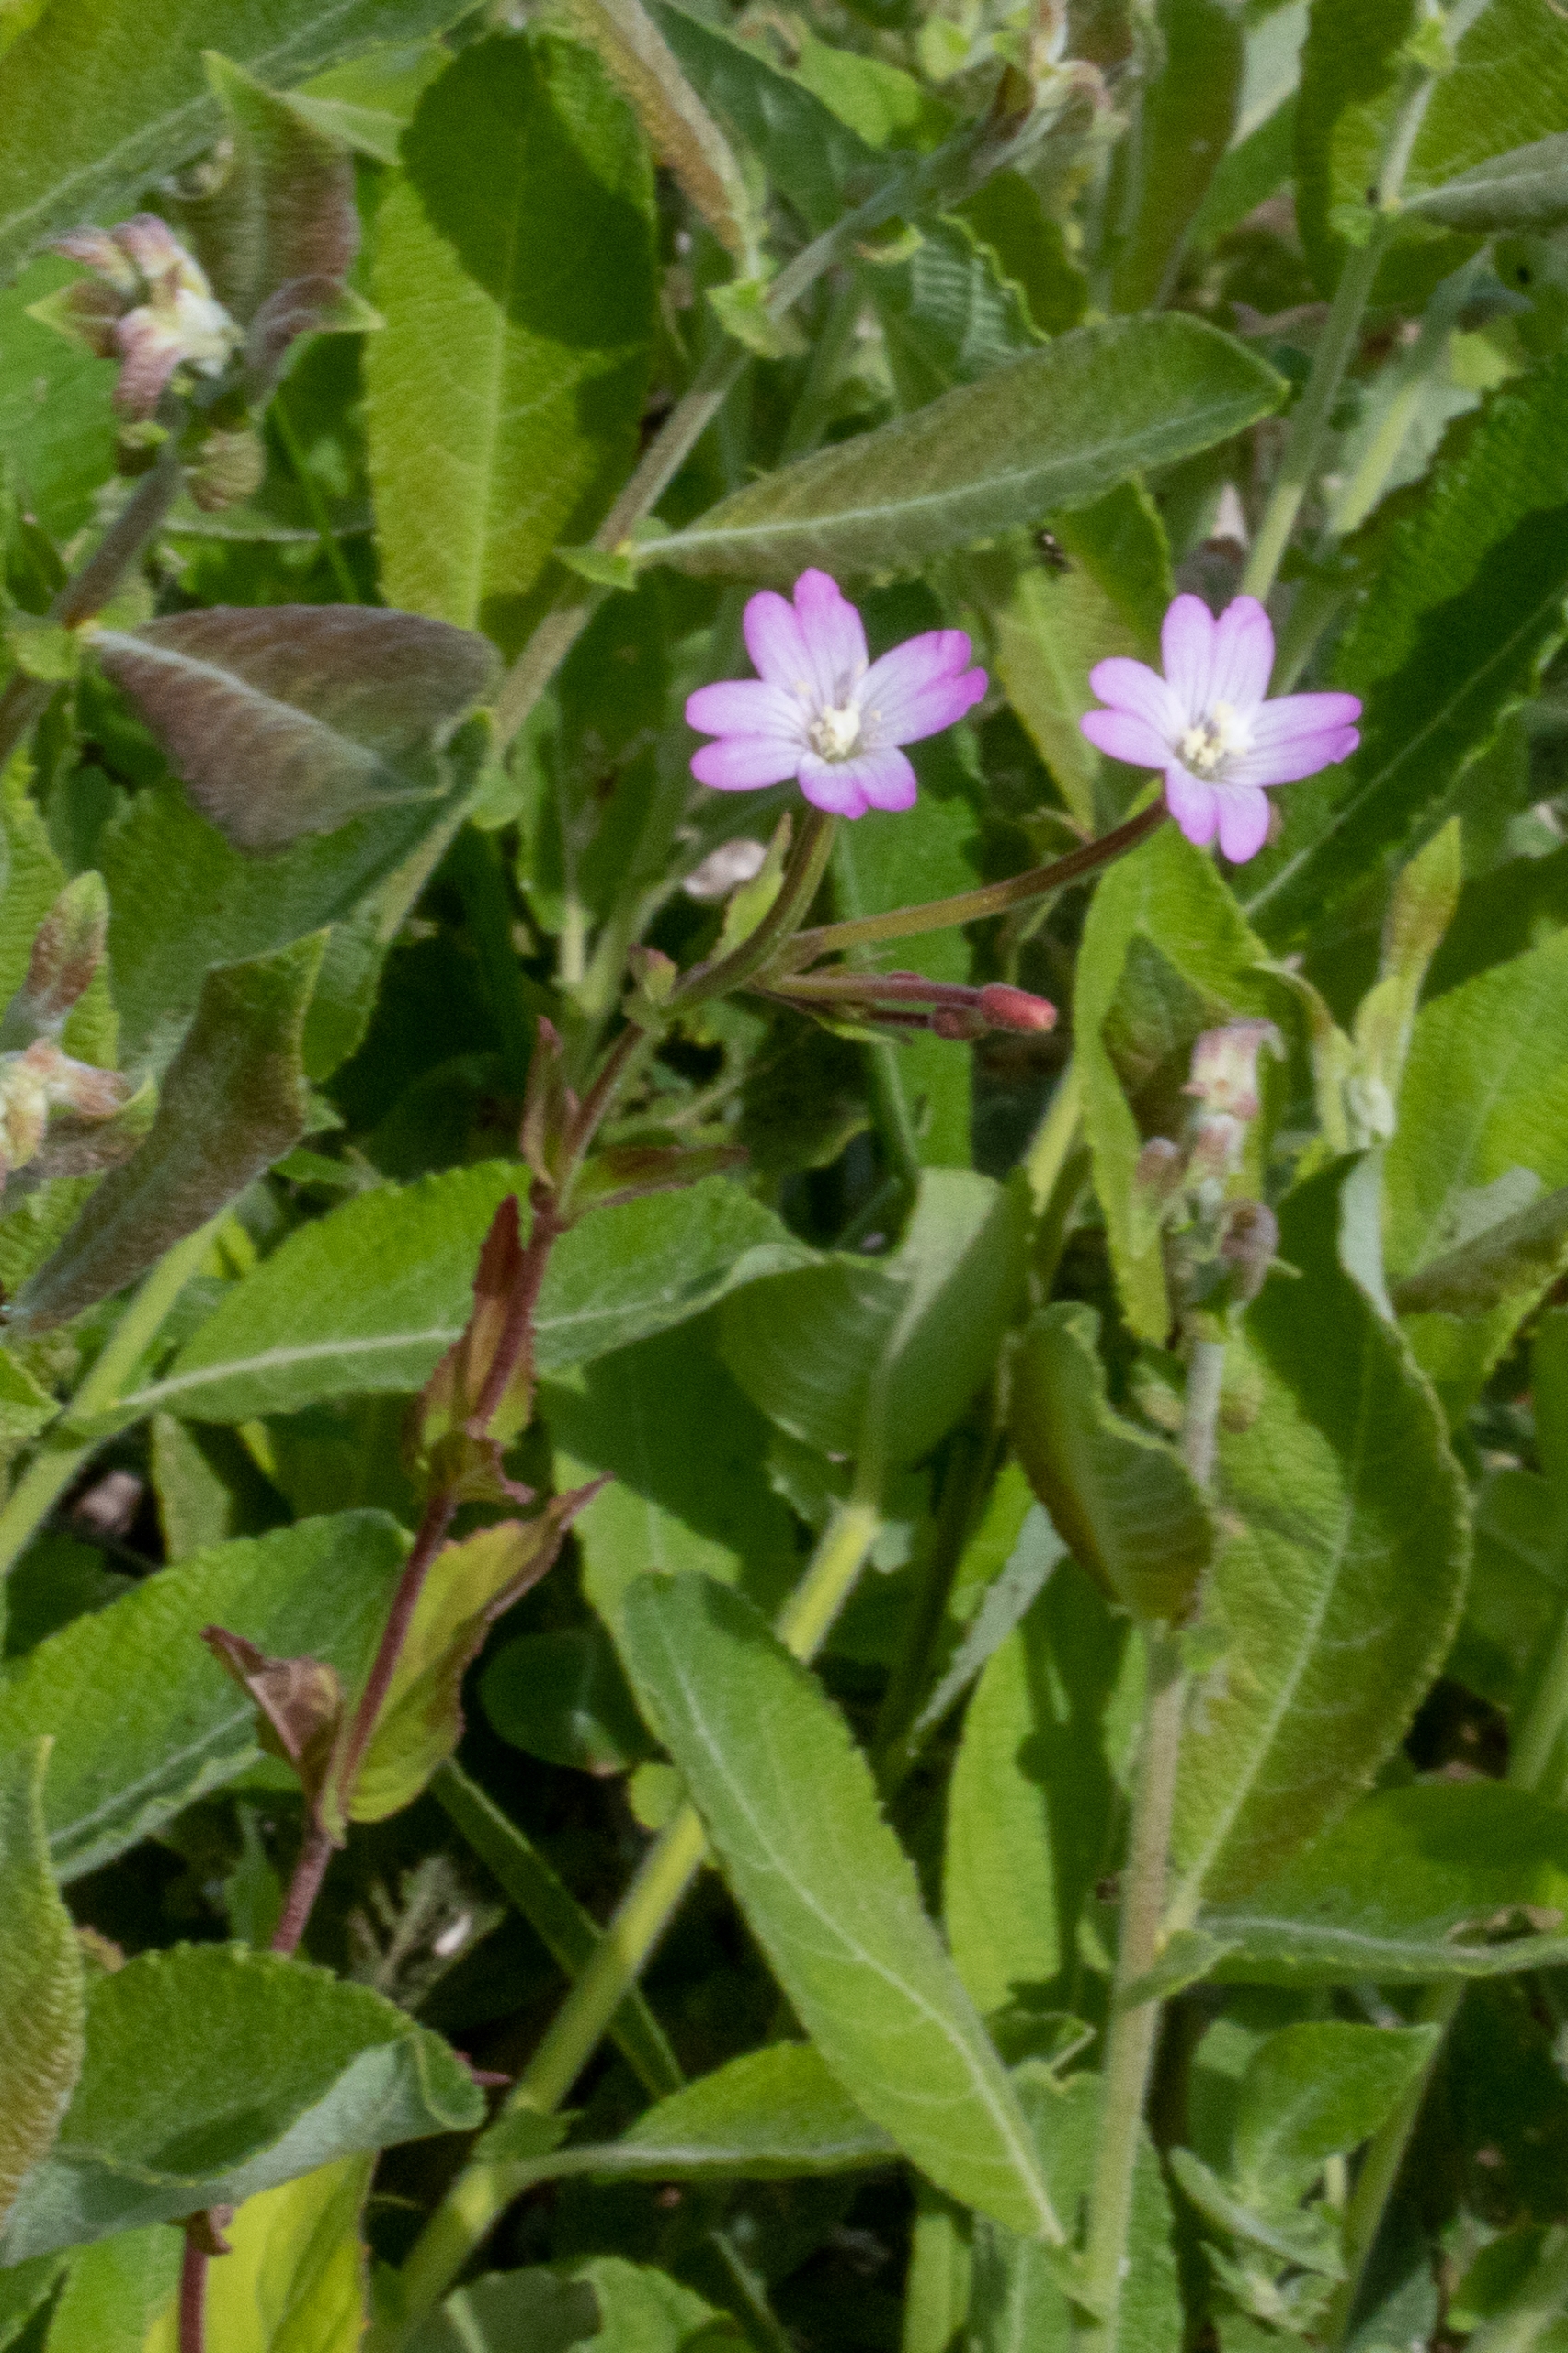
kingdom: Plantae
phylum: Tracheophyta
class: Magnoliopsida
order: Myrtales
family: Onagraceae
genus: Epilobium
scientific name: Epilobium montanum
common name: Glat dueurt
